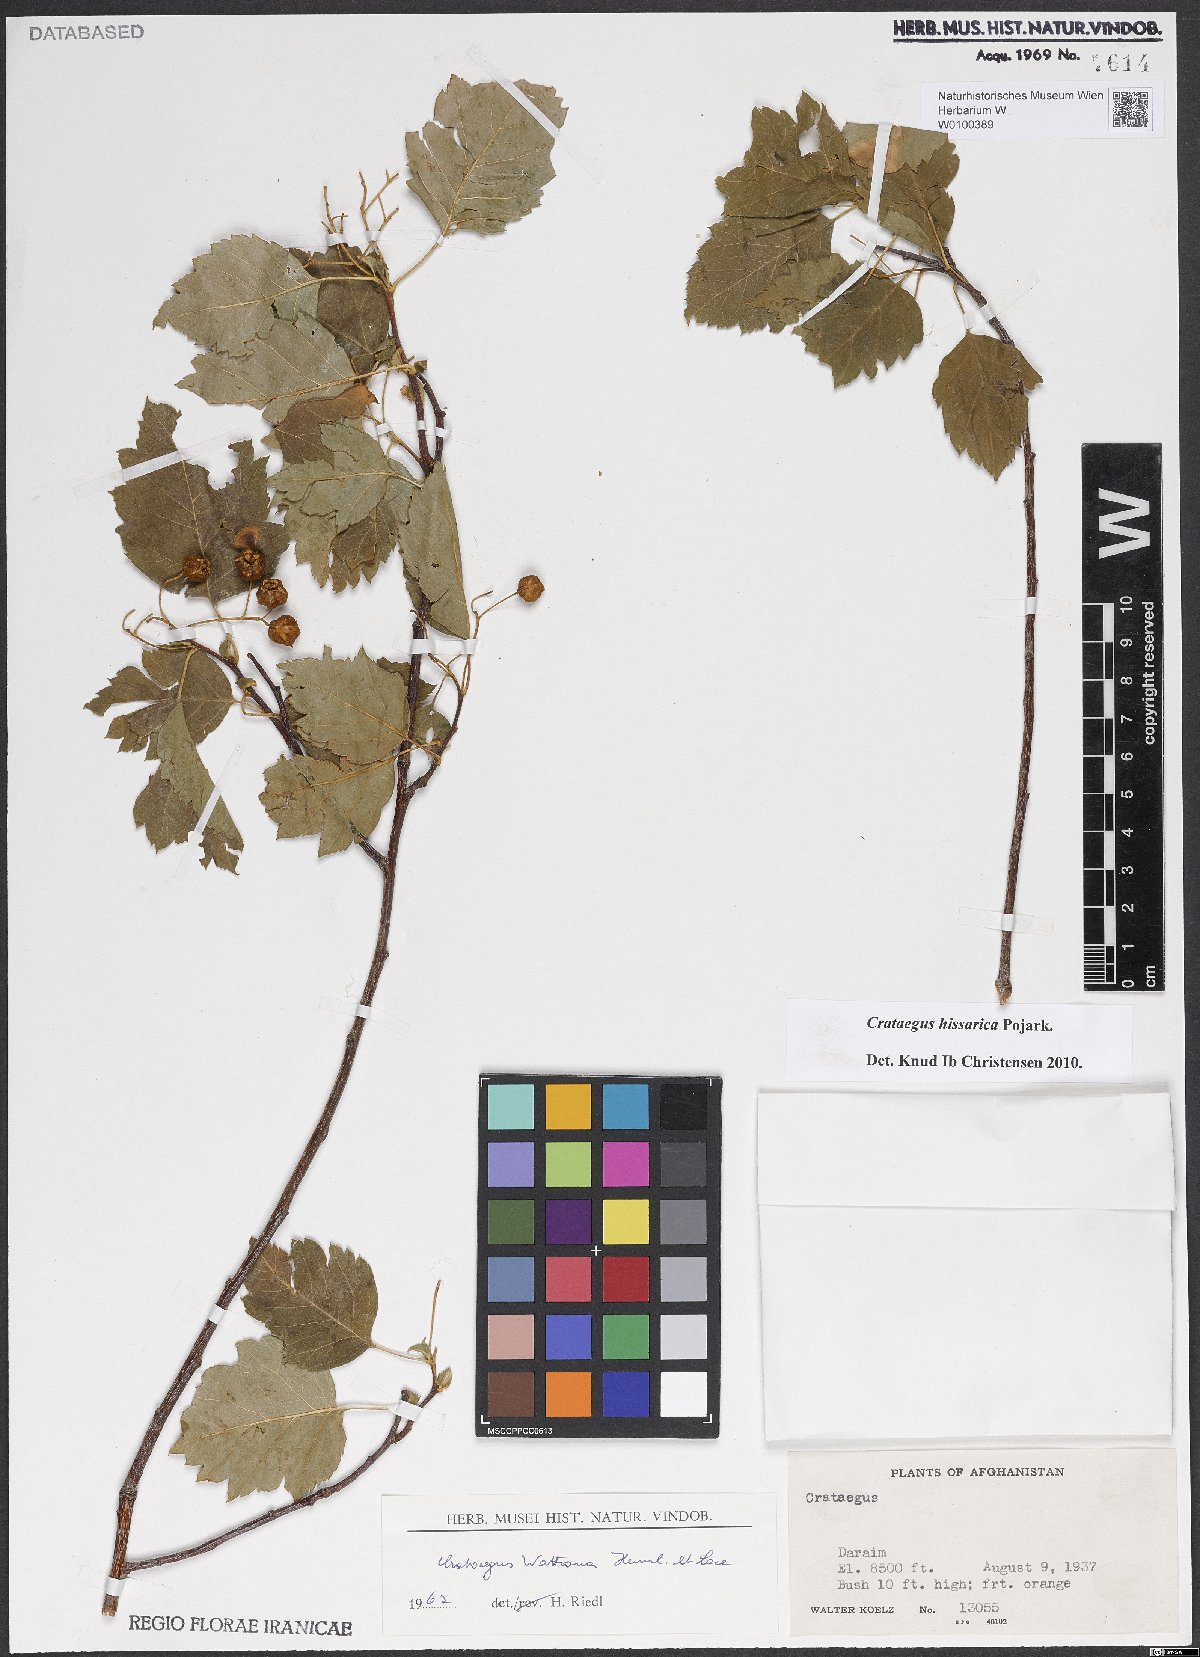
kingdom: Plantae
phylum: Tracheophyta
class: Magnoliopsida
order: Rosales
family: Rosaceae
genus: Crataegus
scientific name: Crataegus hissarica
